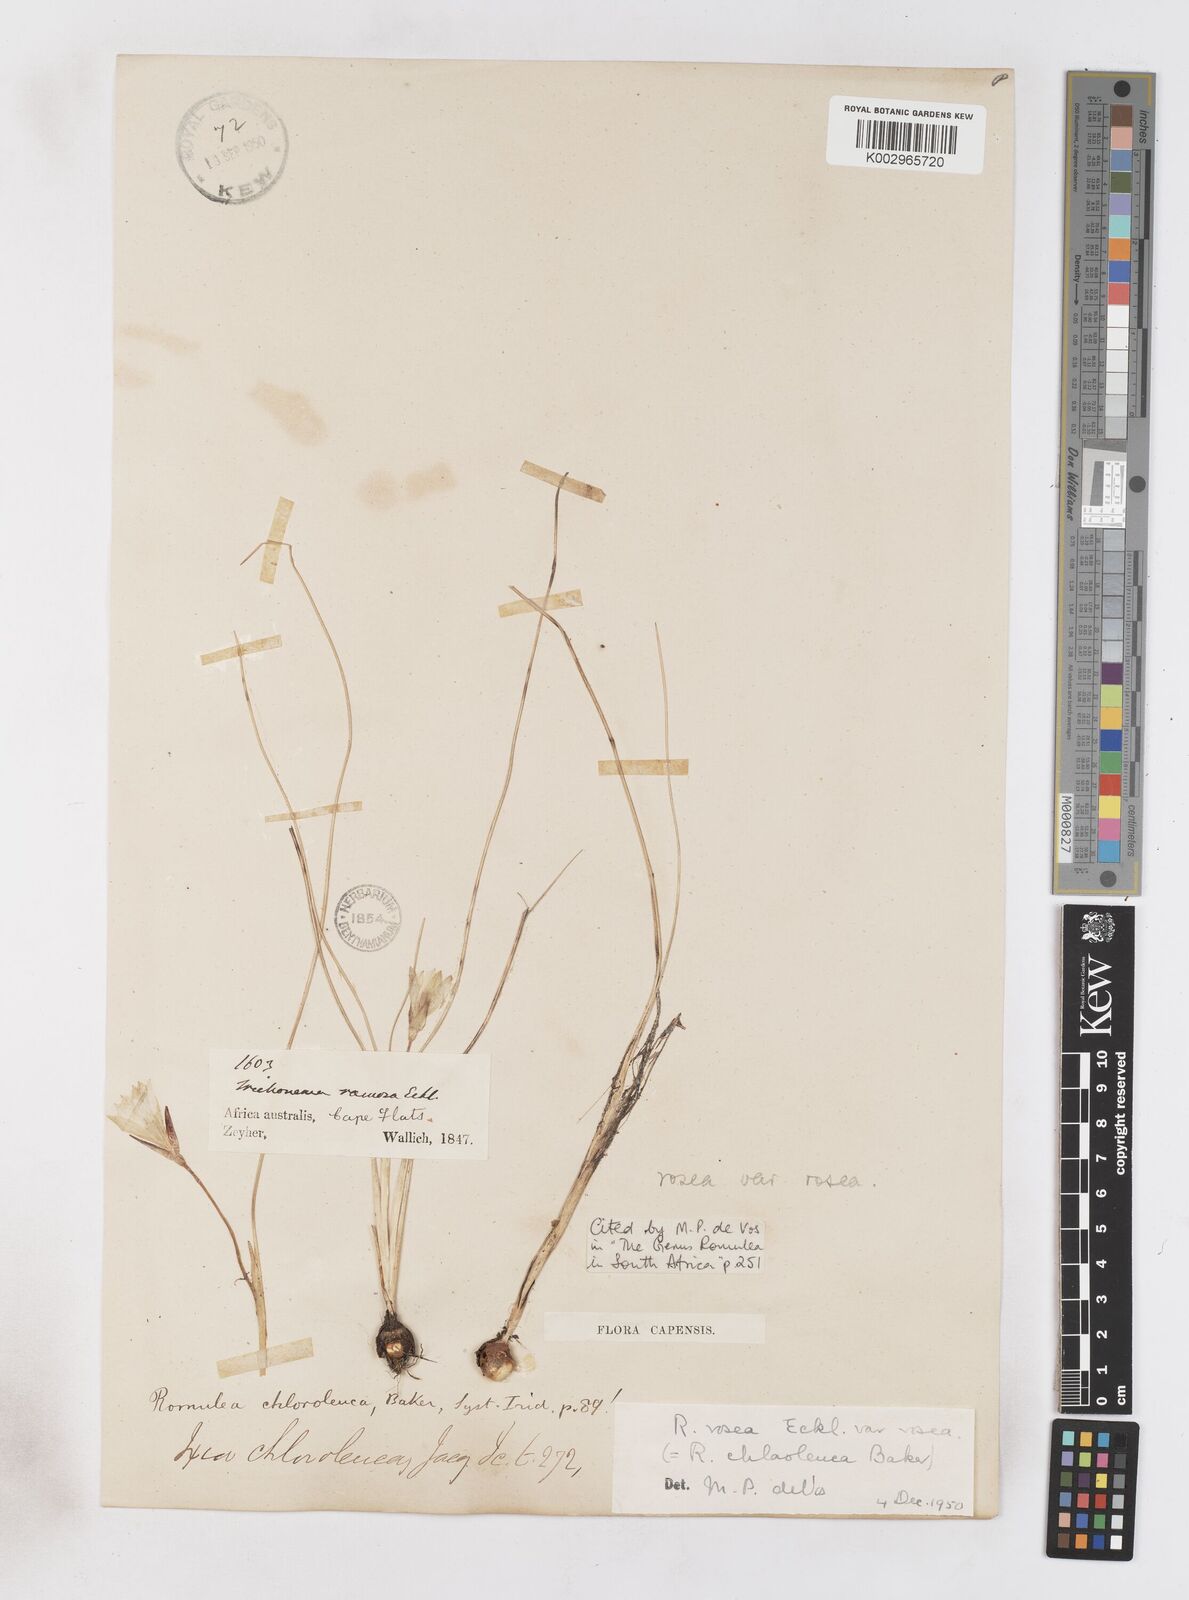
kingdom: Plantae
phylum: Tracheophyta
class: Liliopsida
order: Asparagales
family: Iridaceae
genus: Romulea
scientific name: Romulea rosea
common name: Oniongrass
